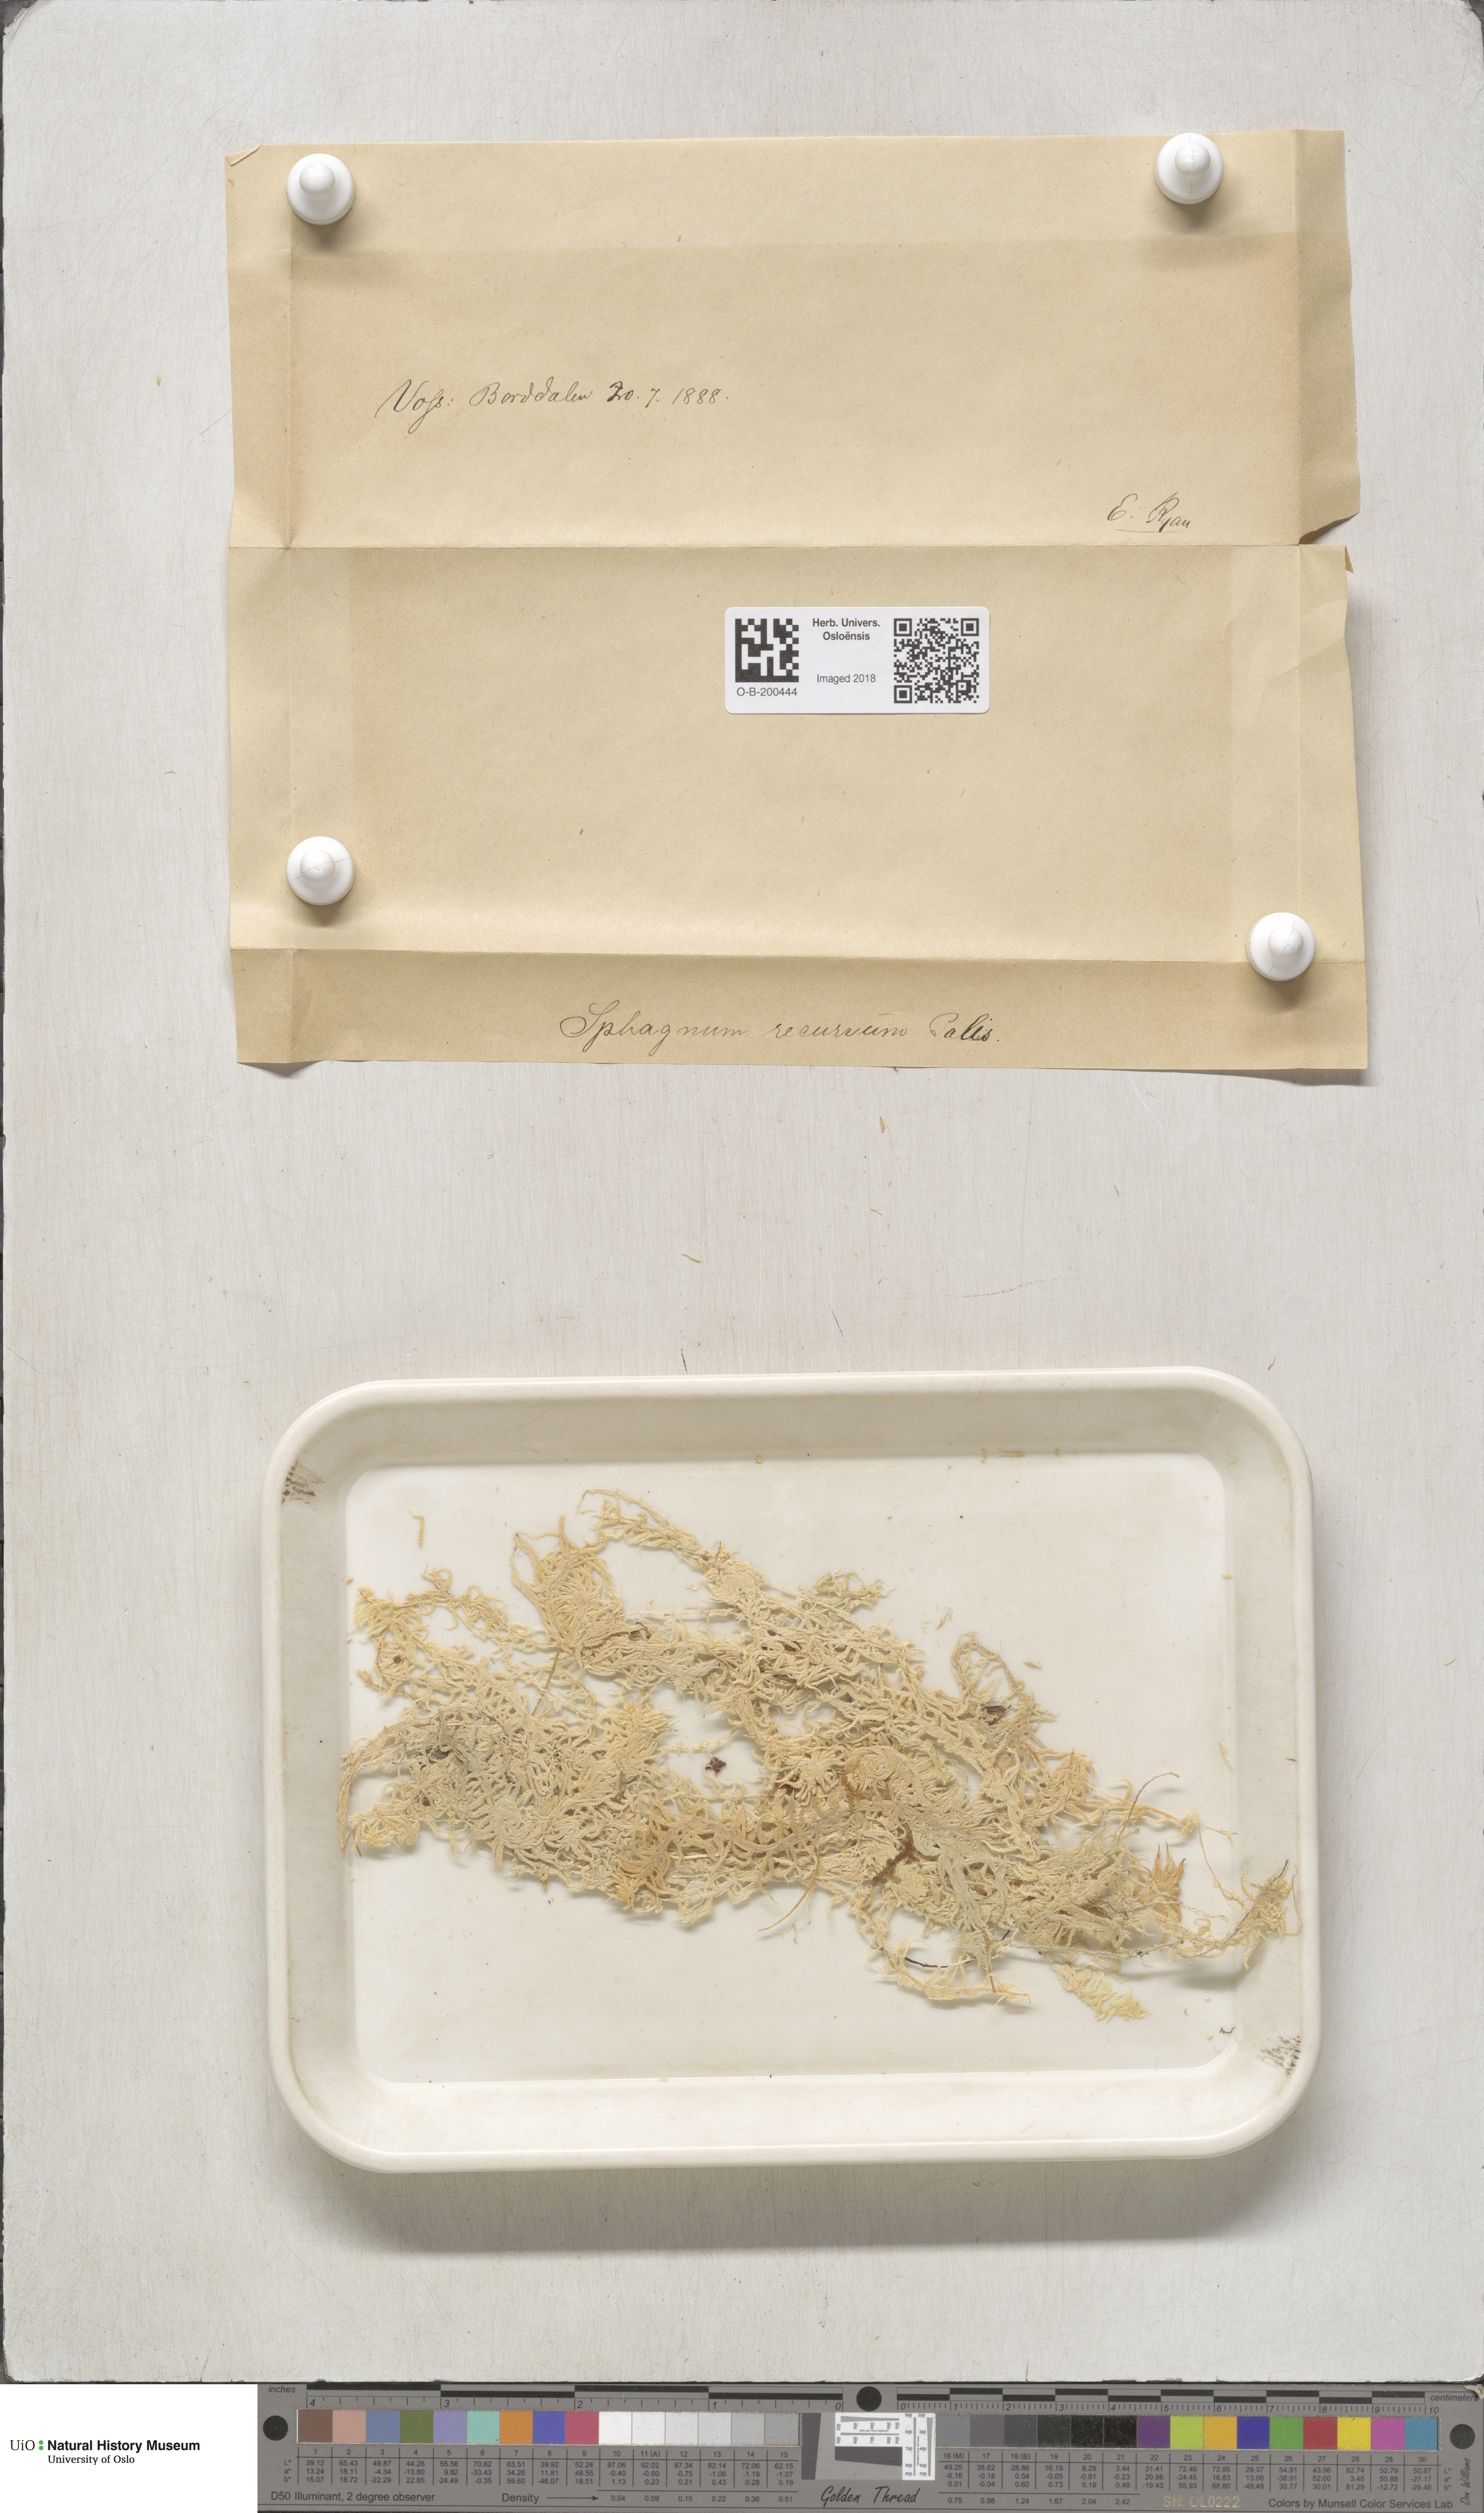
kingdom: Plantae
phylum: Bryophyta
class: Sphagnopsida
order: Sphagnales
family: Sphagnaceae
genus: Sphagnum
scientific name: Sphagnum fallax
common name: Flat-top peat moss
